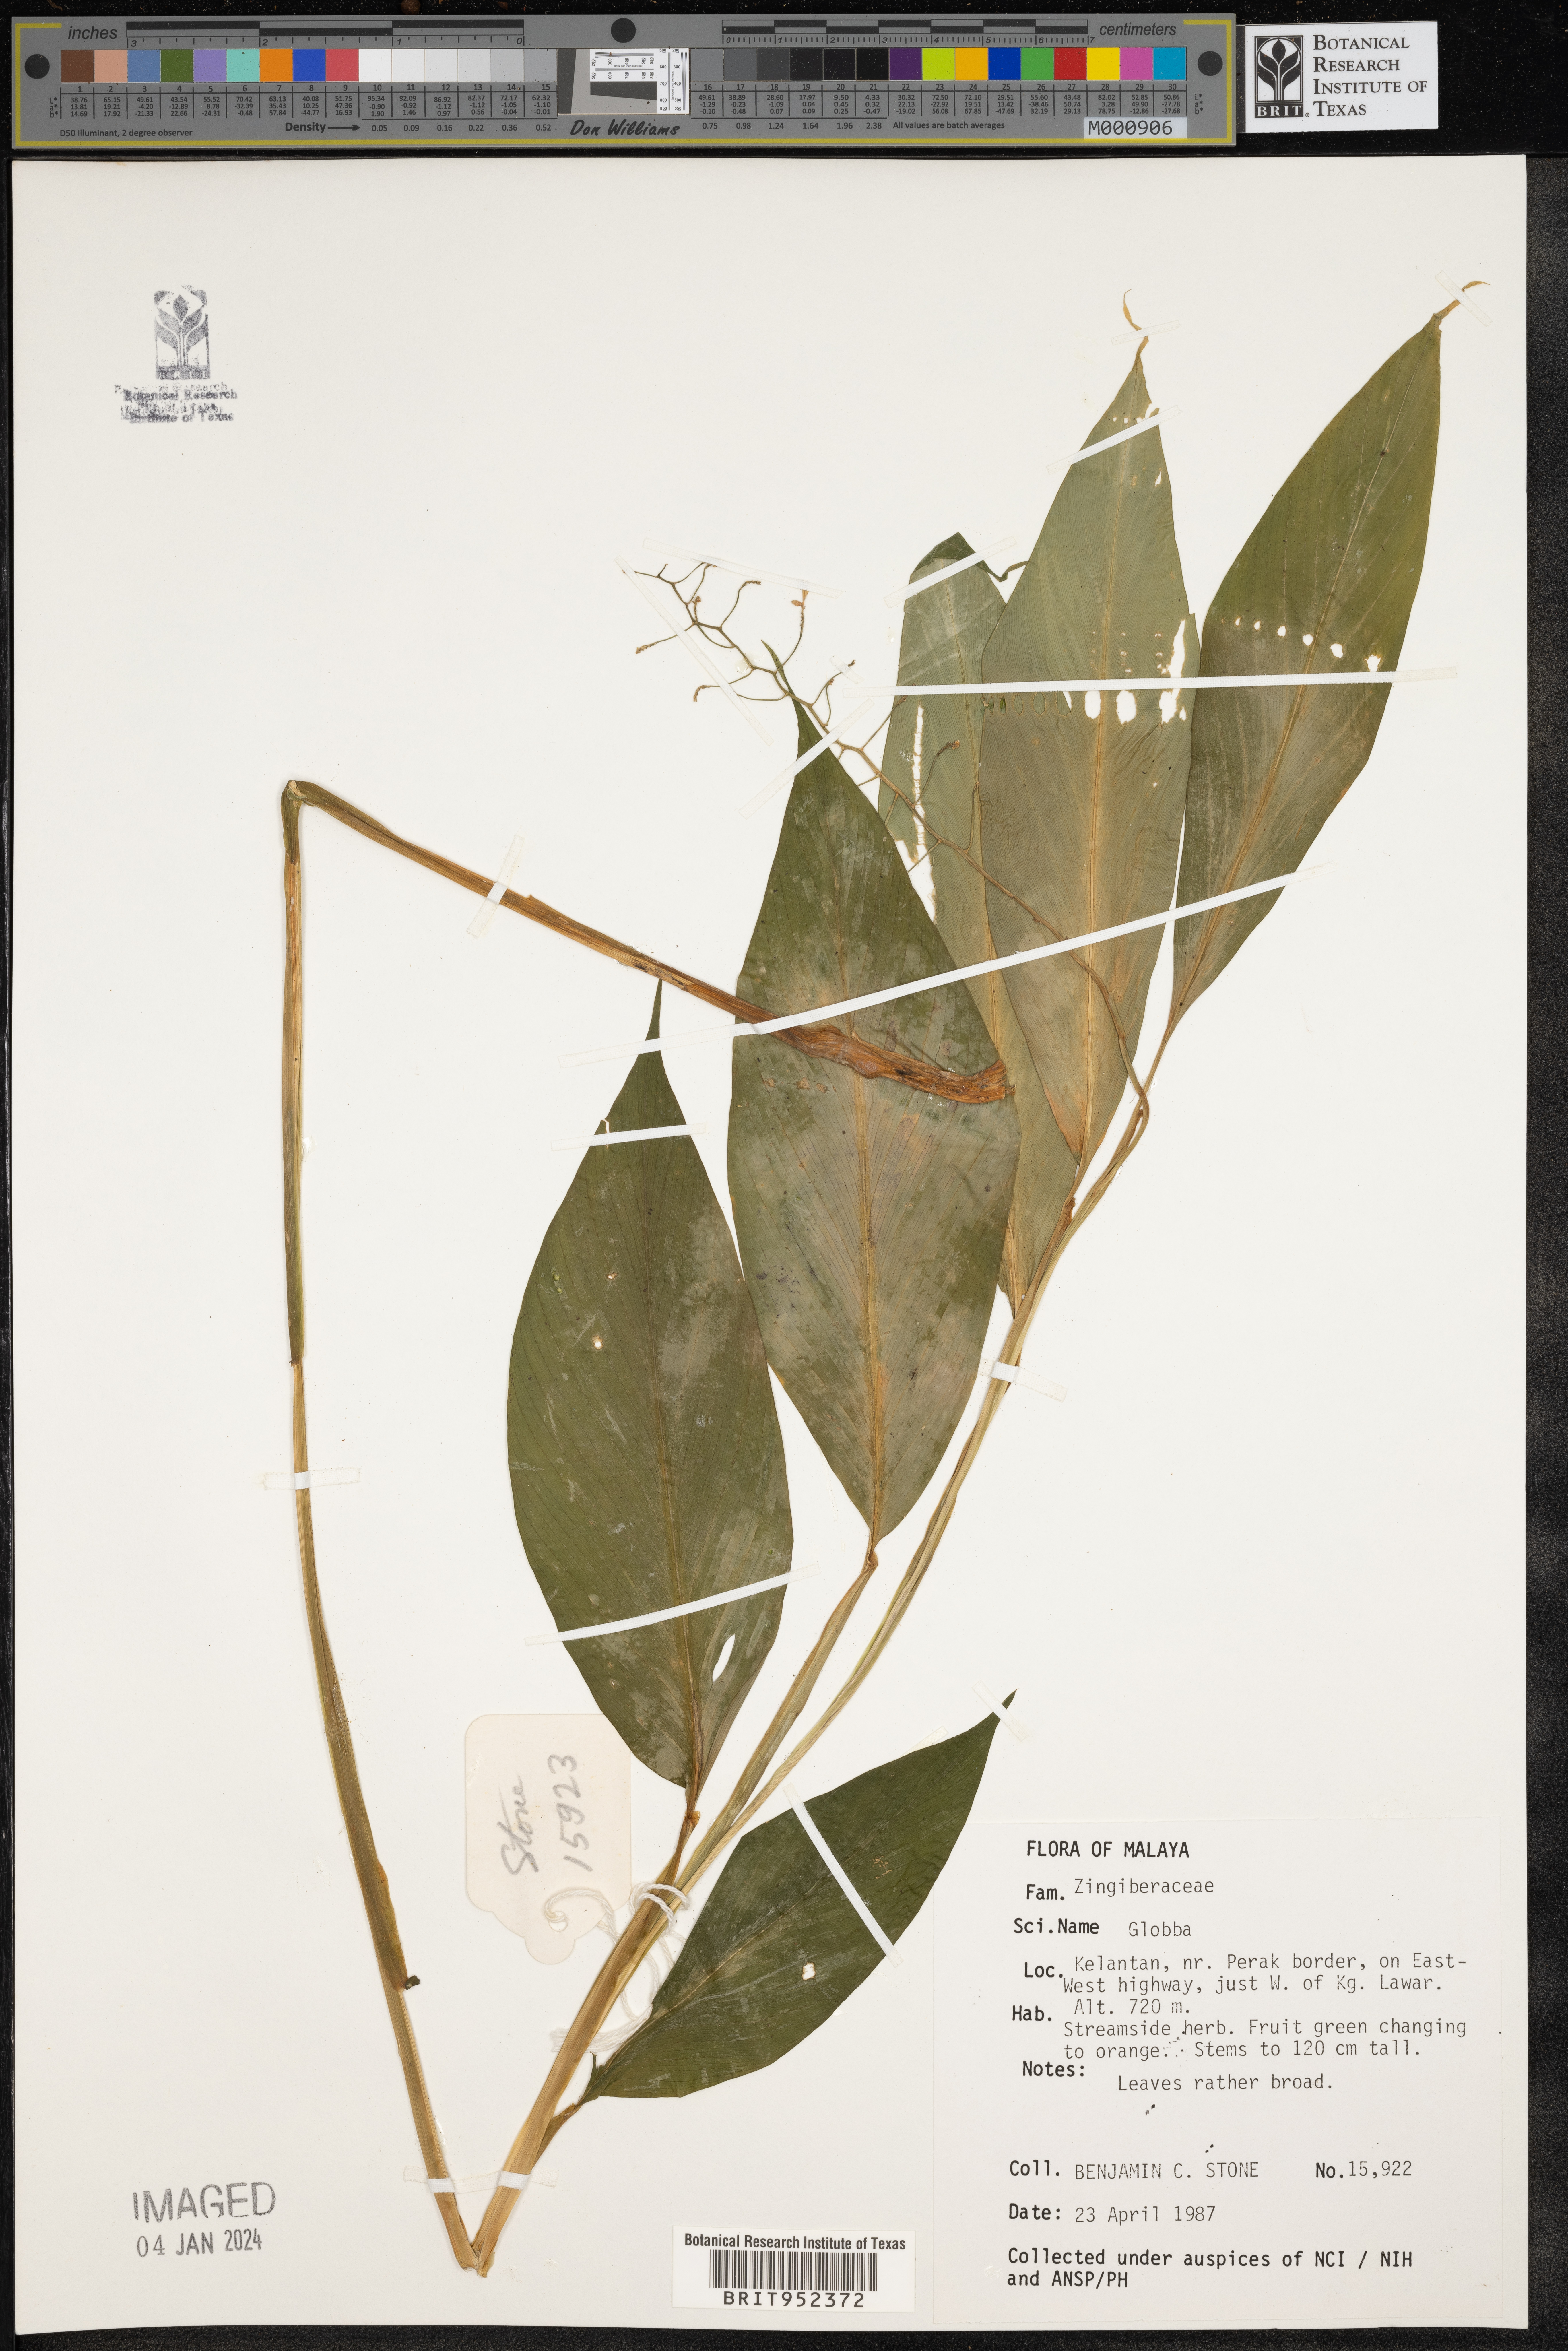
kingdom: Plantae
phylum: Tracheophyta
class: Liliopsida
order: Zingiberales
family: Zingiberaceae
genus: Globba
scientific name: Globba
